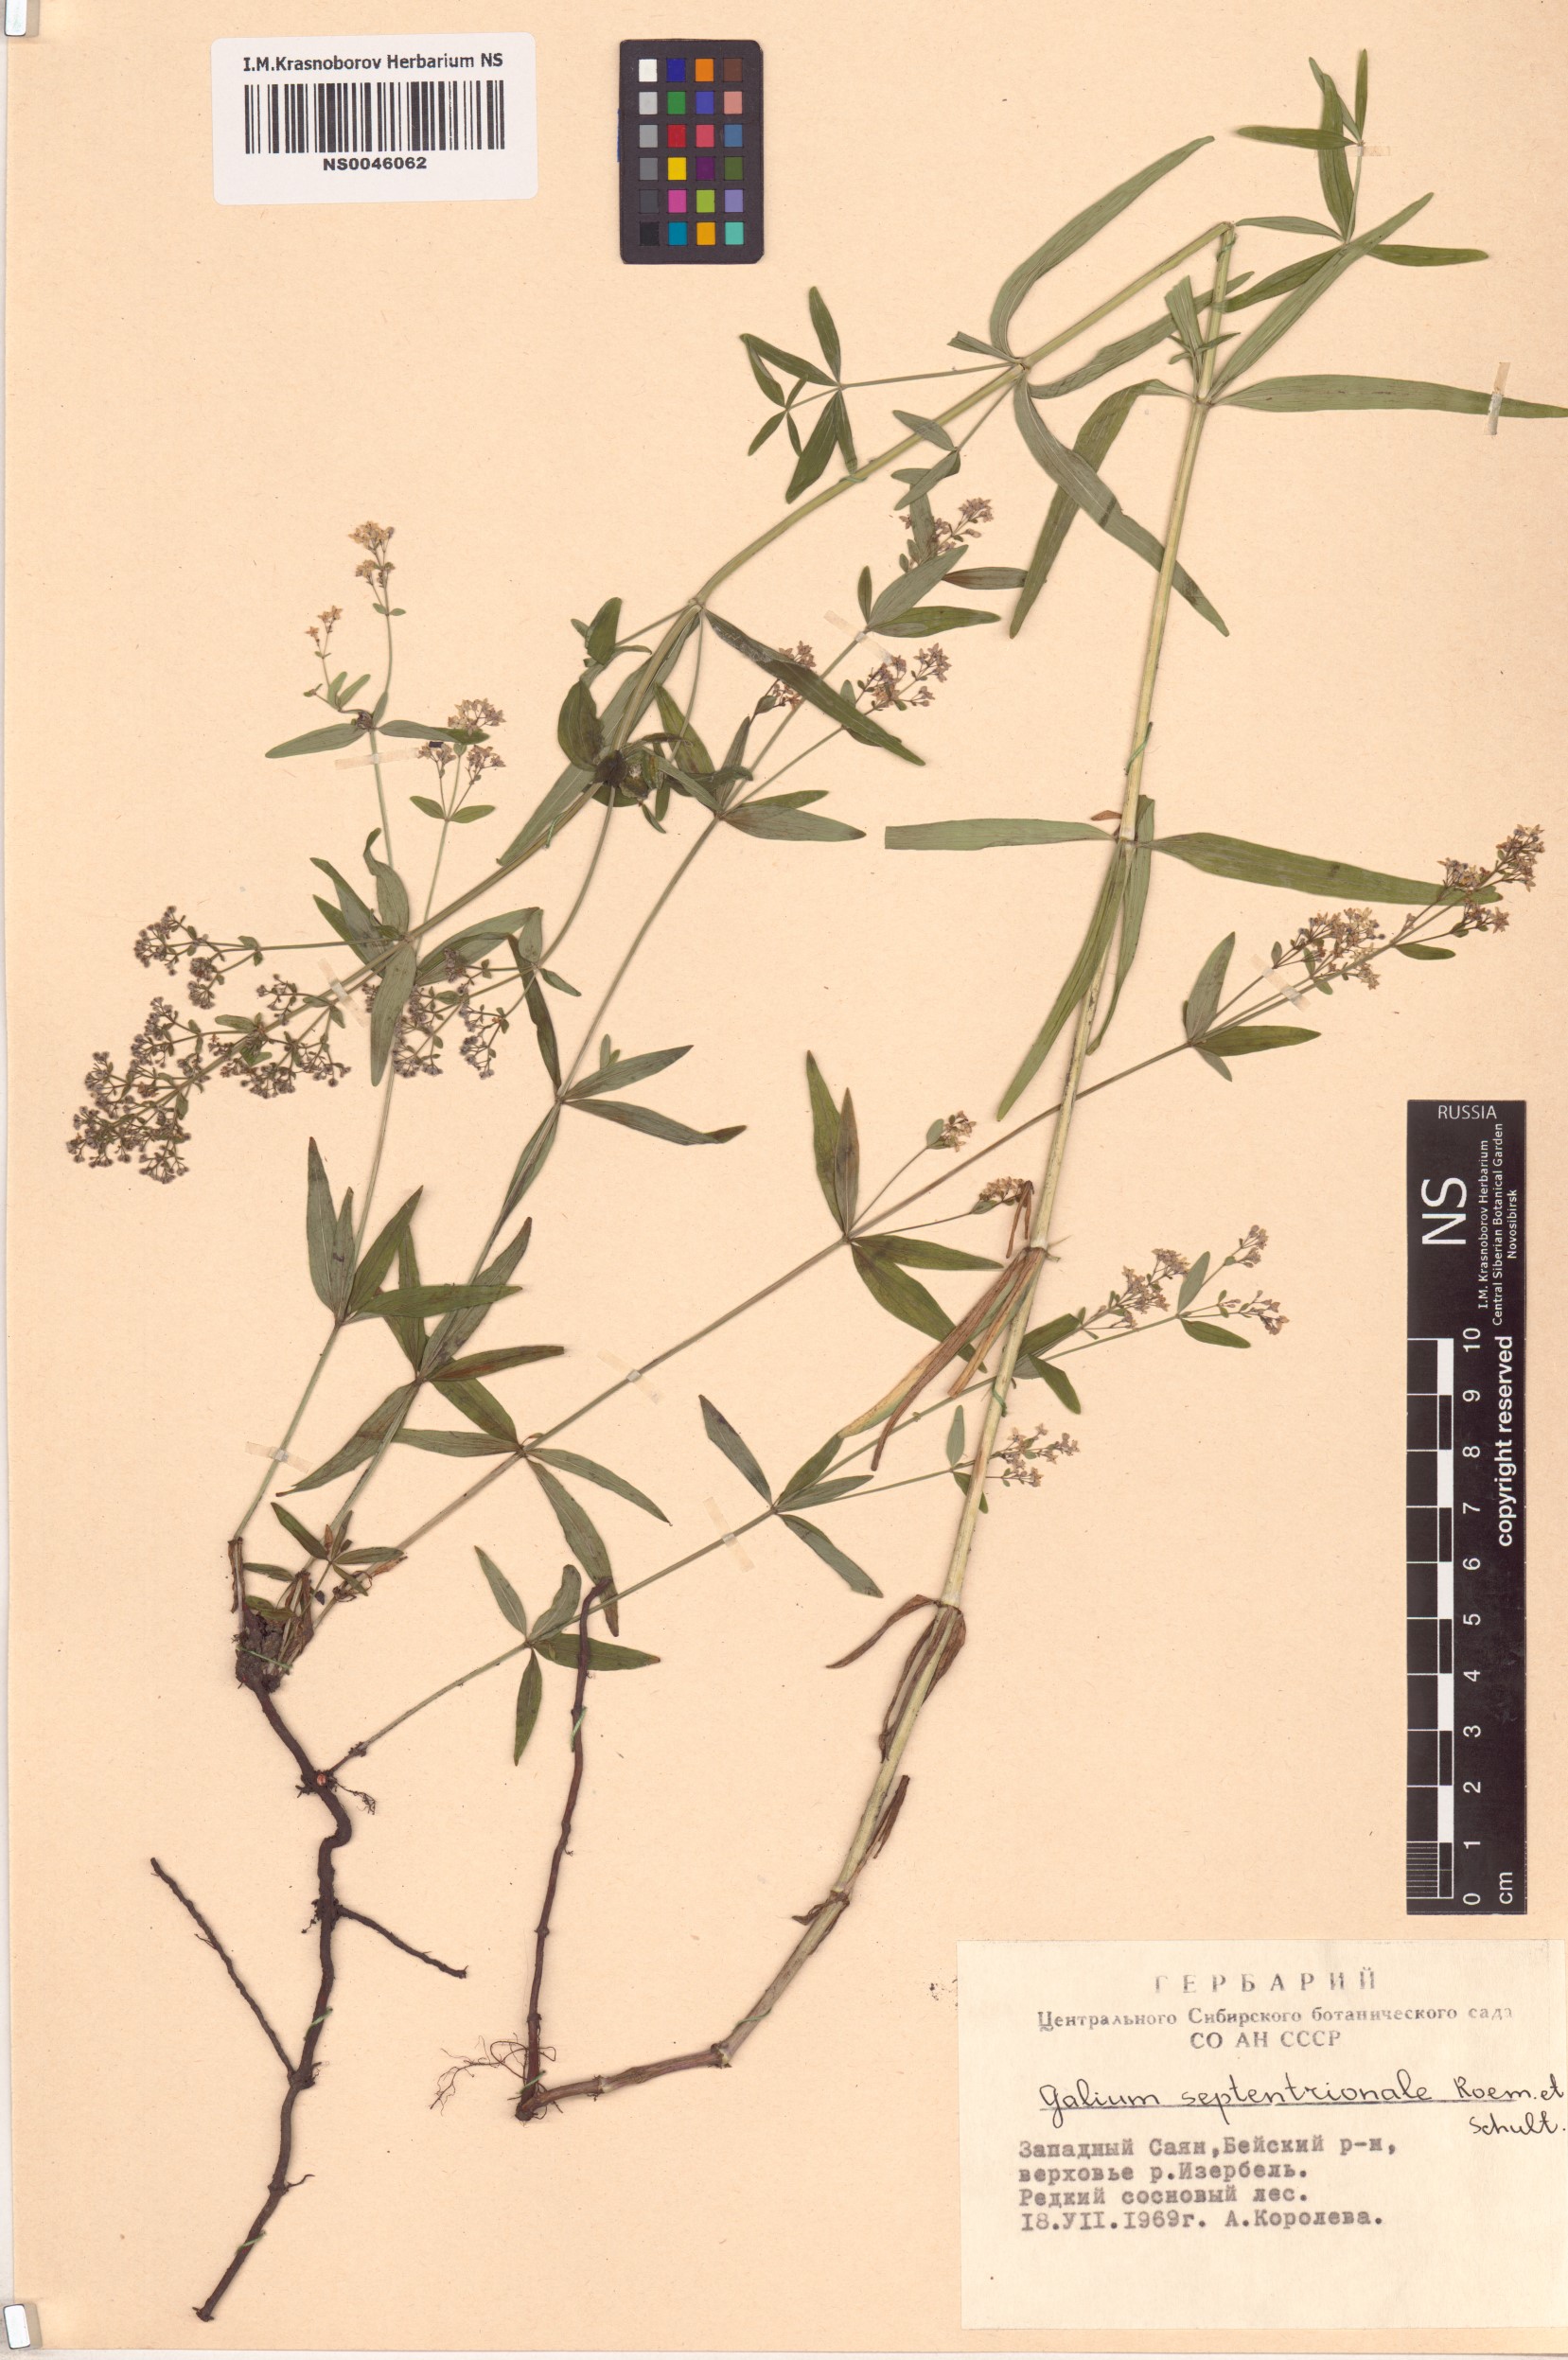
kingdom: Plantae
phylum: Tracheophyta
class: Magnoliopsida
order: Gentianales
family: Rubiaceae
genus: Galium
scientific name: Galium boreale
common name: Northern bedstraw
